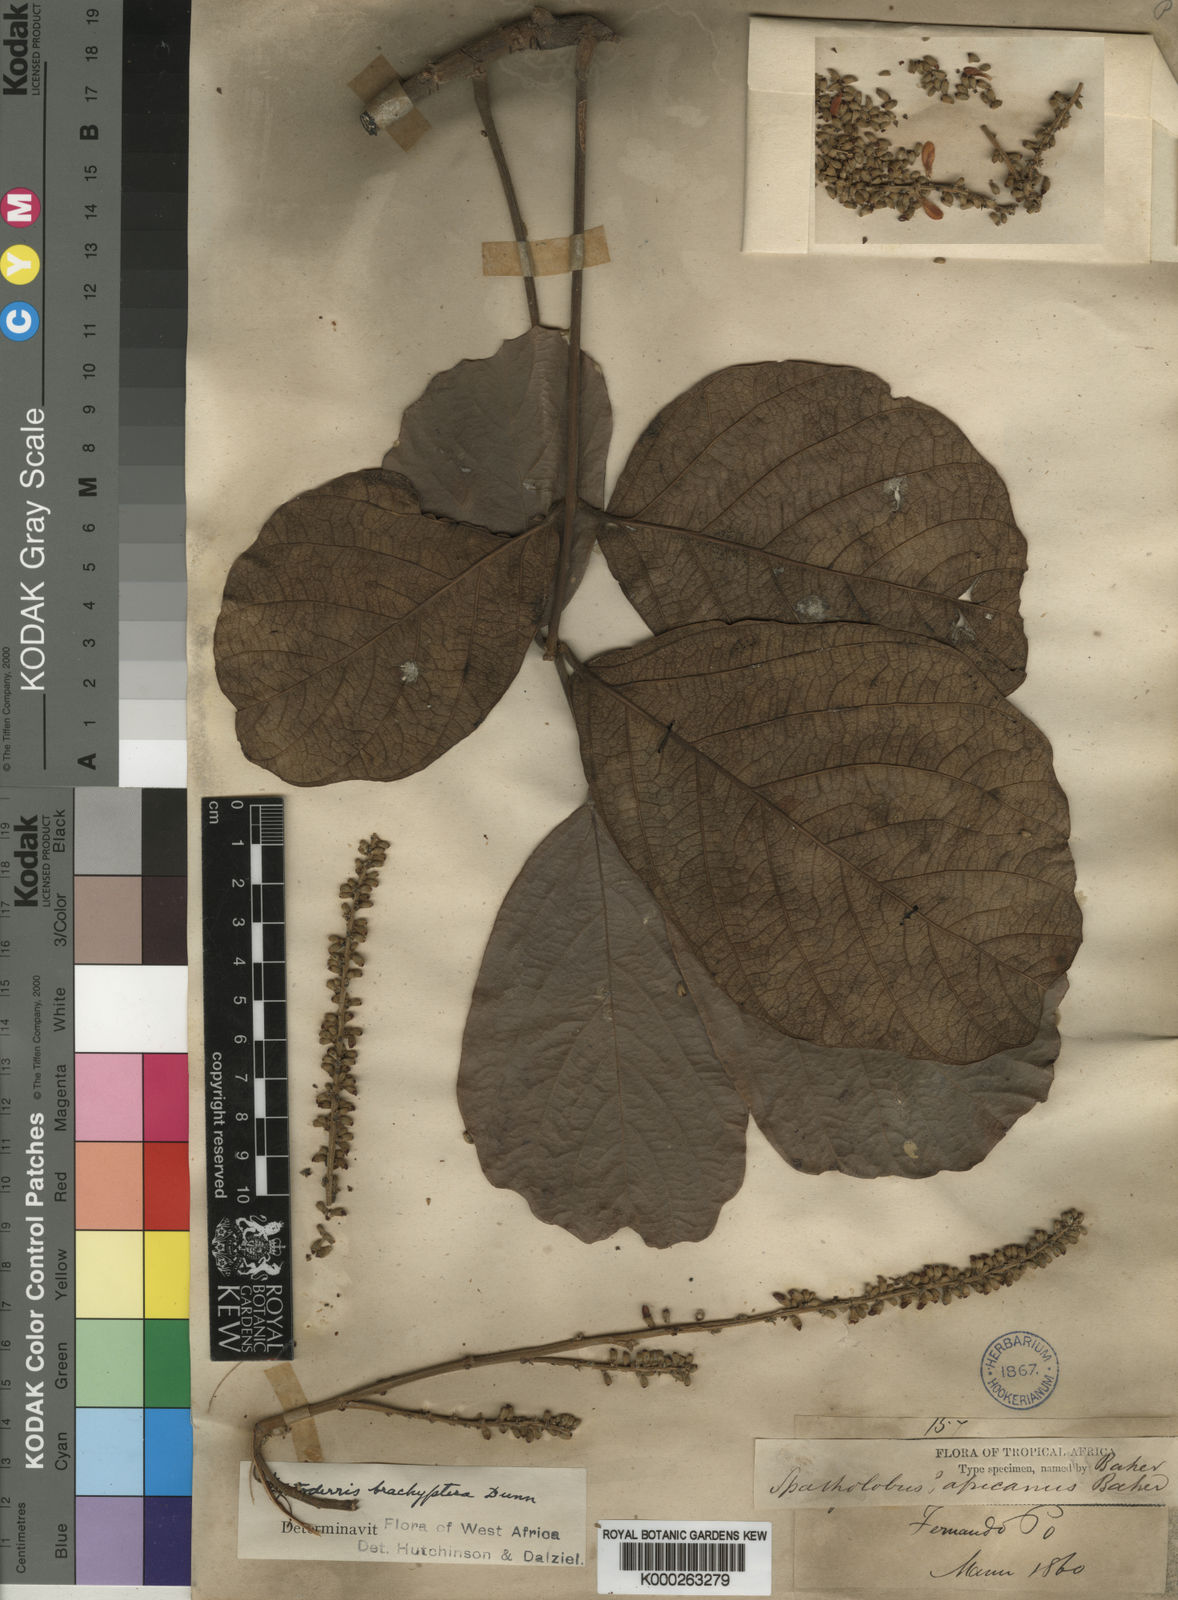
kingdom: Plantae
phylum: Tracheophyta
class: Magnoliopsida
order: Fabales
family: Fabaceae
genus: Leptoderris
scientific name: Leptoderris brachyptera
